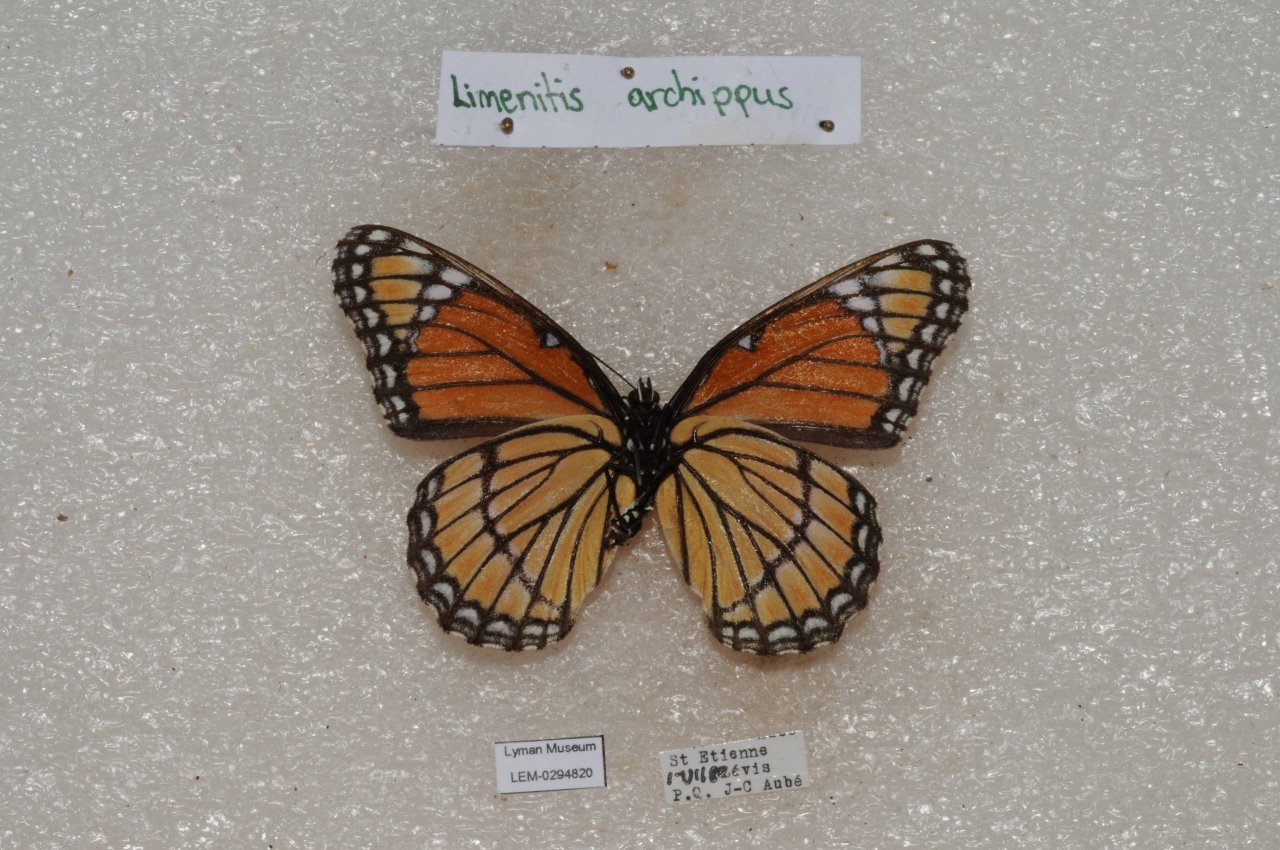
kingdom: Animalia
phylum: Arthropoda
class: Insecta
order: Lepidoptera
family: Nymphalidae
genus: Limenitis
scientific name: Limenitis archippus
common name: Viceroy
